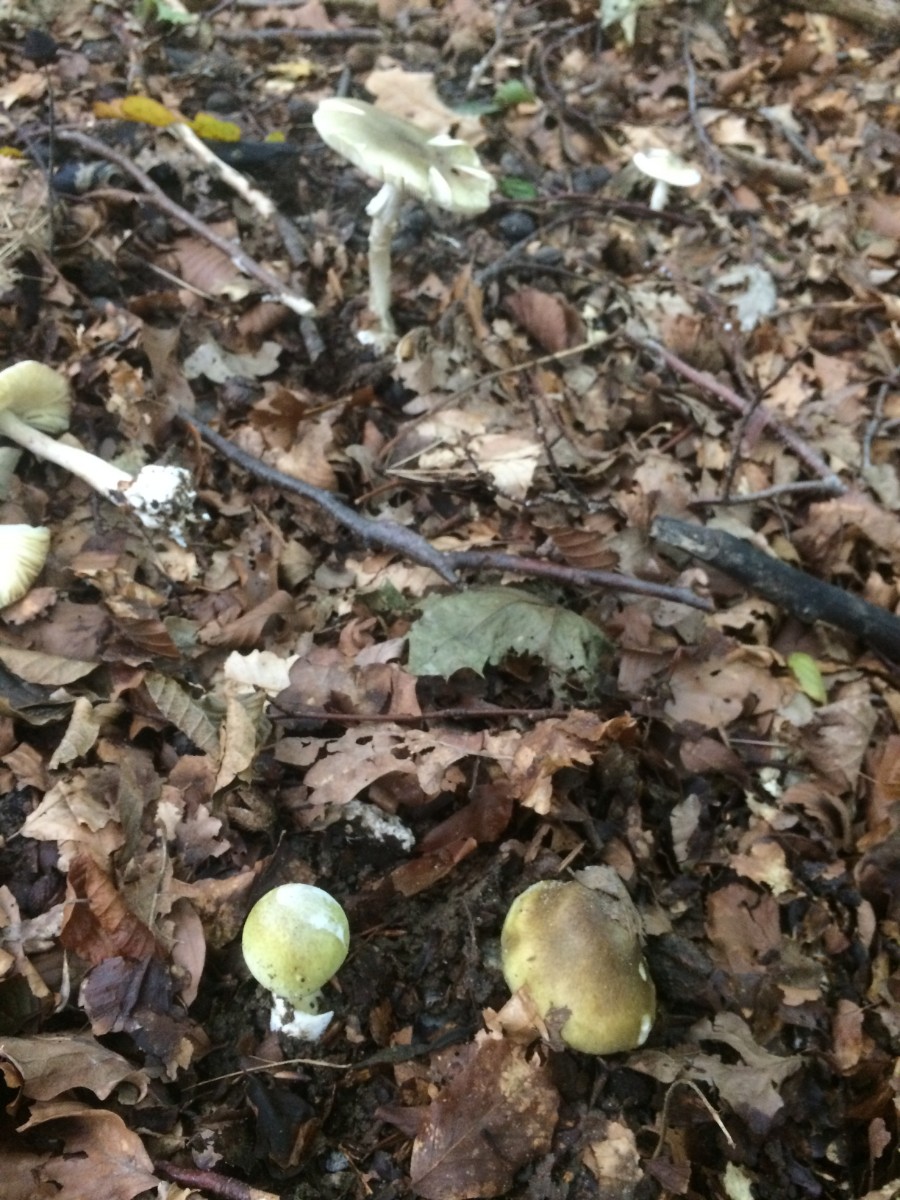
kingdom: Fungi
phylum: Basidiomycota
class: Agaricomycetes
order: Agaricales
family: Amanitaceae
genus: Amanita
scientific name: Amanita phalloides
